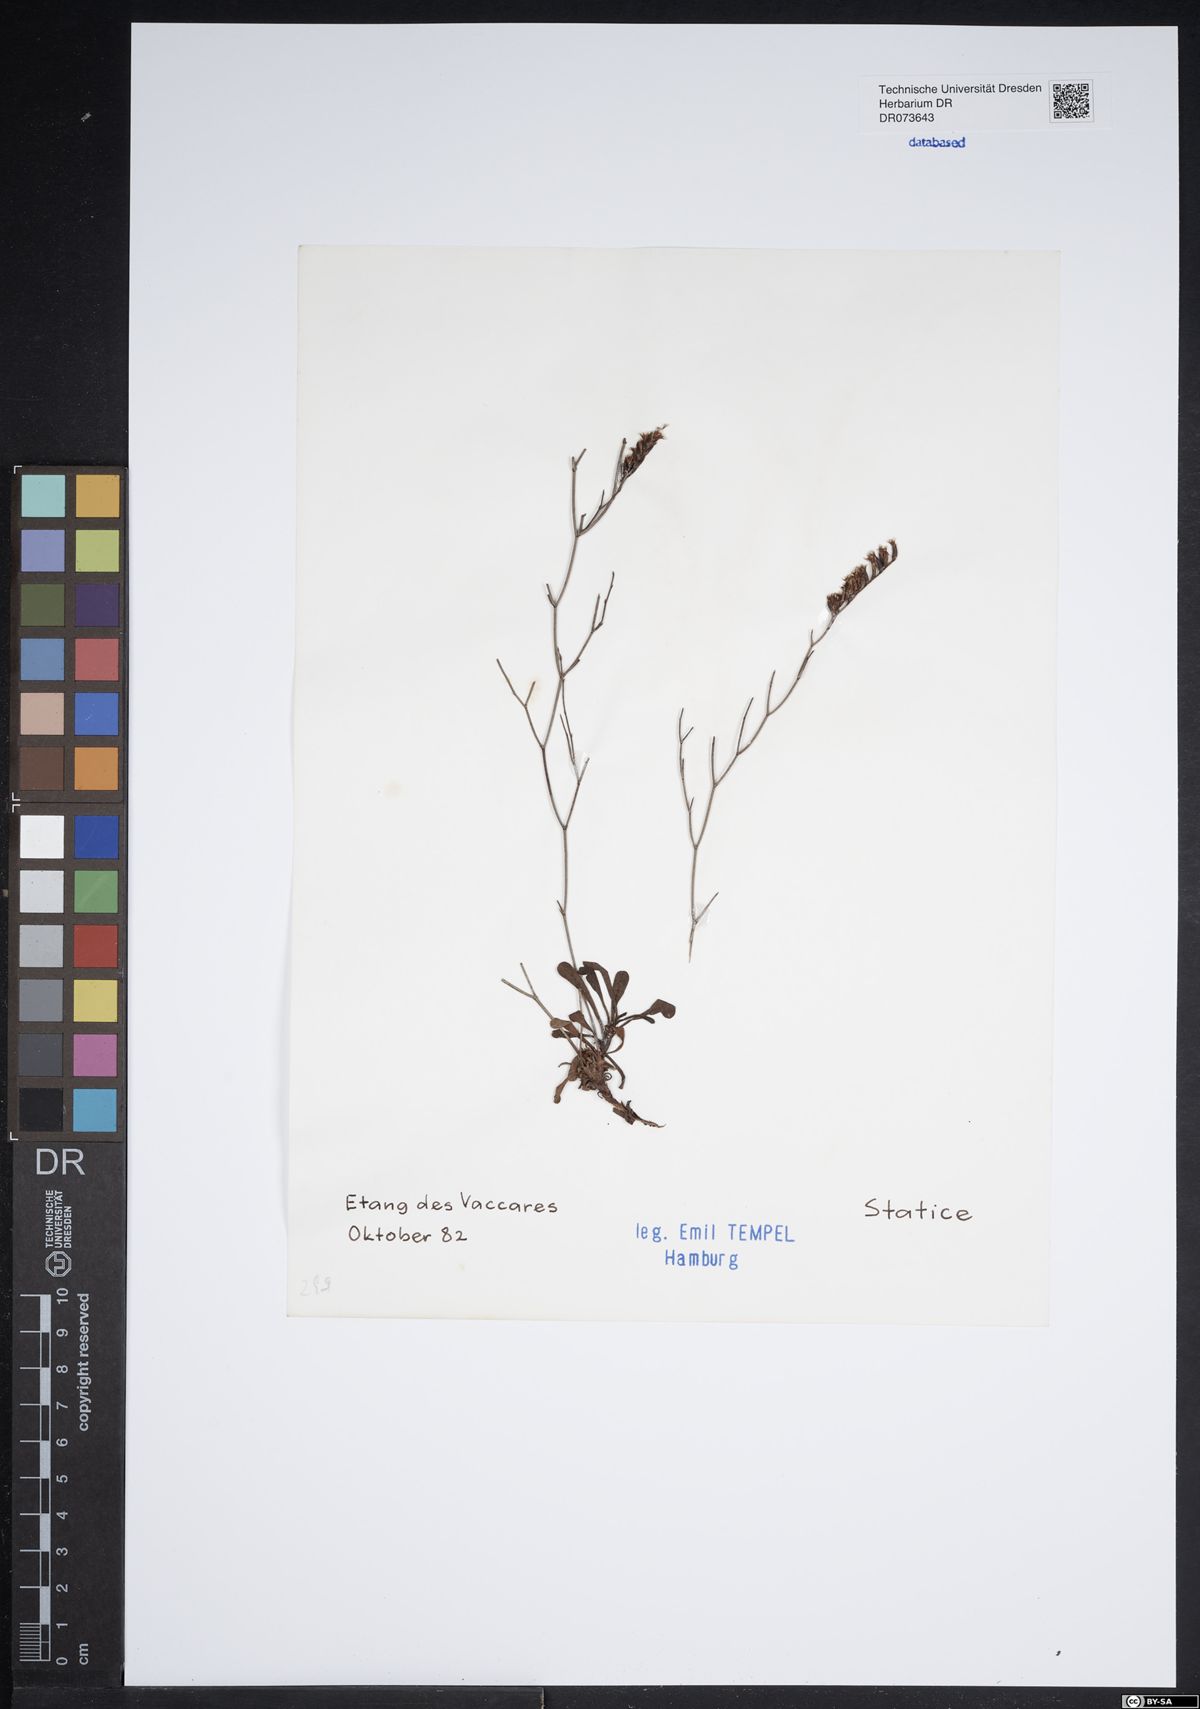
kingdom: Plantae
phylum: Tracheophyta
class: Magnoliopsida
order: Caryophyllales
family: Plumbaginaceae
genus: Armeria
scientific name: Armeria
